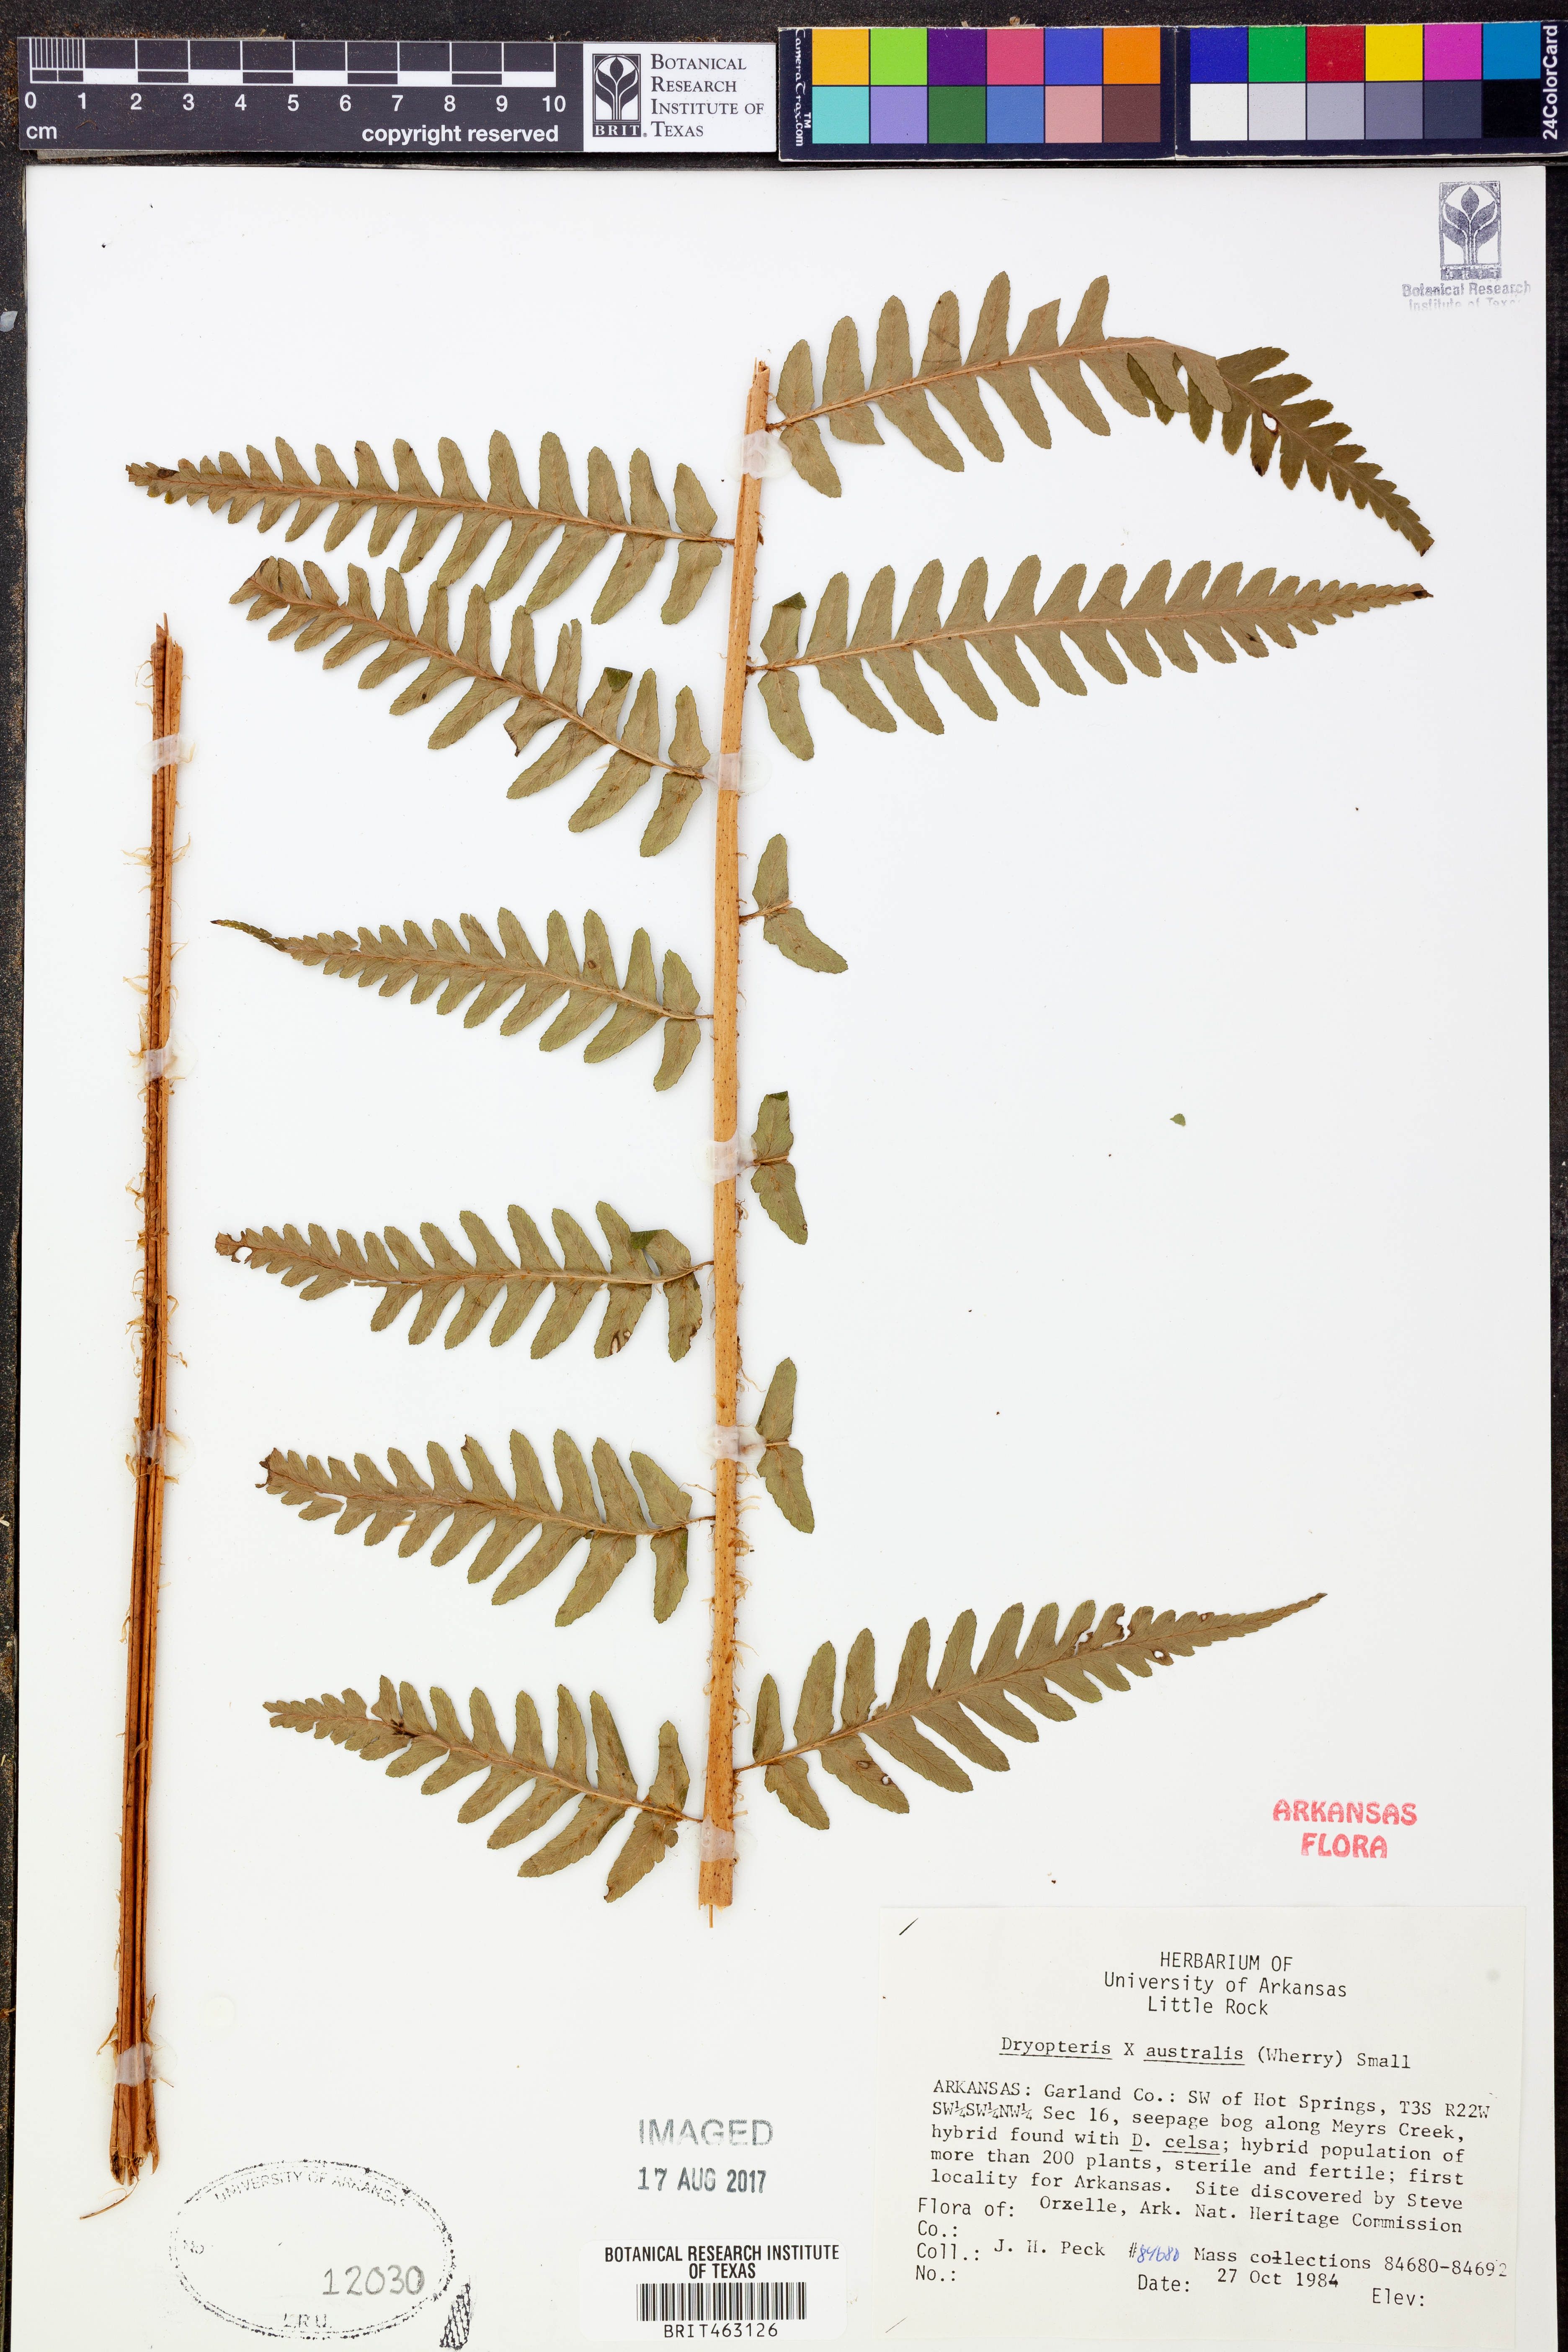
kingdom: Plantae
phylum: Tracheophyta
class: Polypodiopsida
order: Polypodiales
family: Dryopteridaceae
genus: Dryopteris
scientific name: Dryopteris
